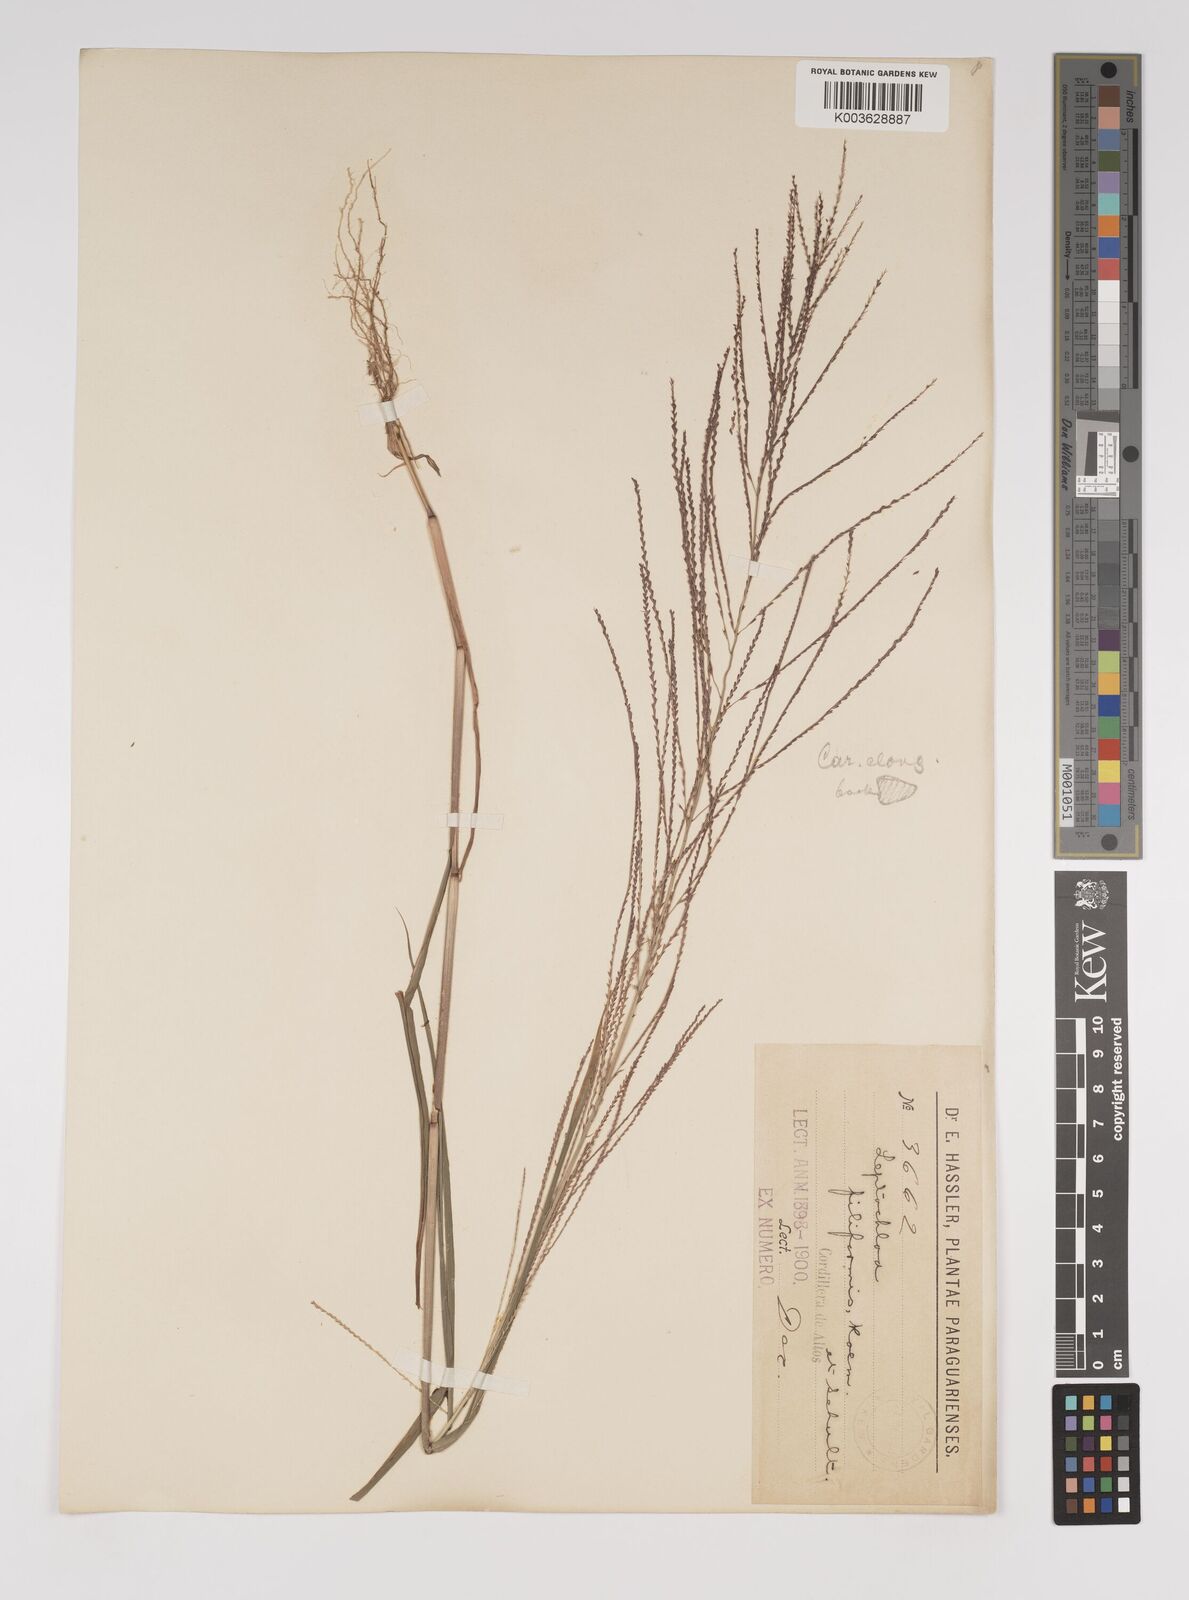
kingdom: Plantae
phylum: Tracheophyta
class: Liliopsida
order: Poales
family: Poaceae
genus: Leptochloa
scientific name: Leptochloa panicea
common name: Mucronate sprangletop
